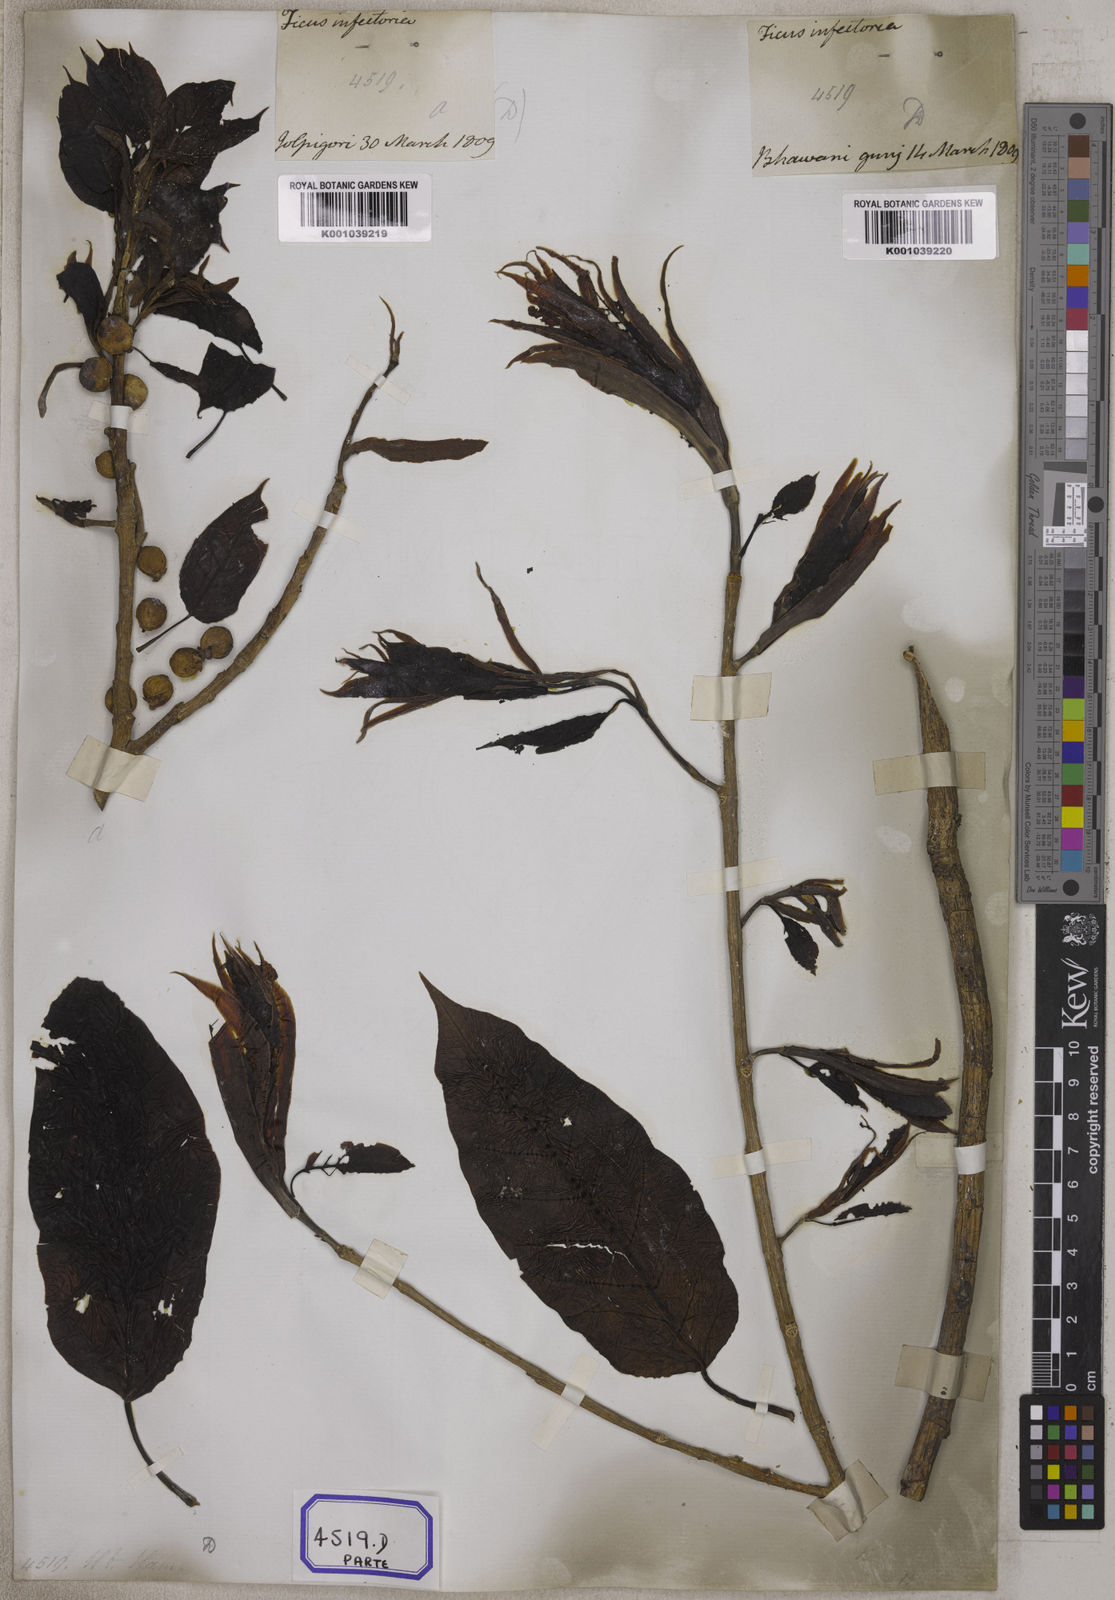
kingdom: Plantae
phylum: Tracheophyta
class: Magnoliopsida
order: Rosales
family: Moraceae
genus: Ficus
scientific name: Ficus
